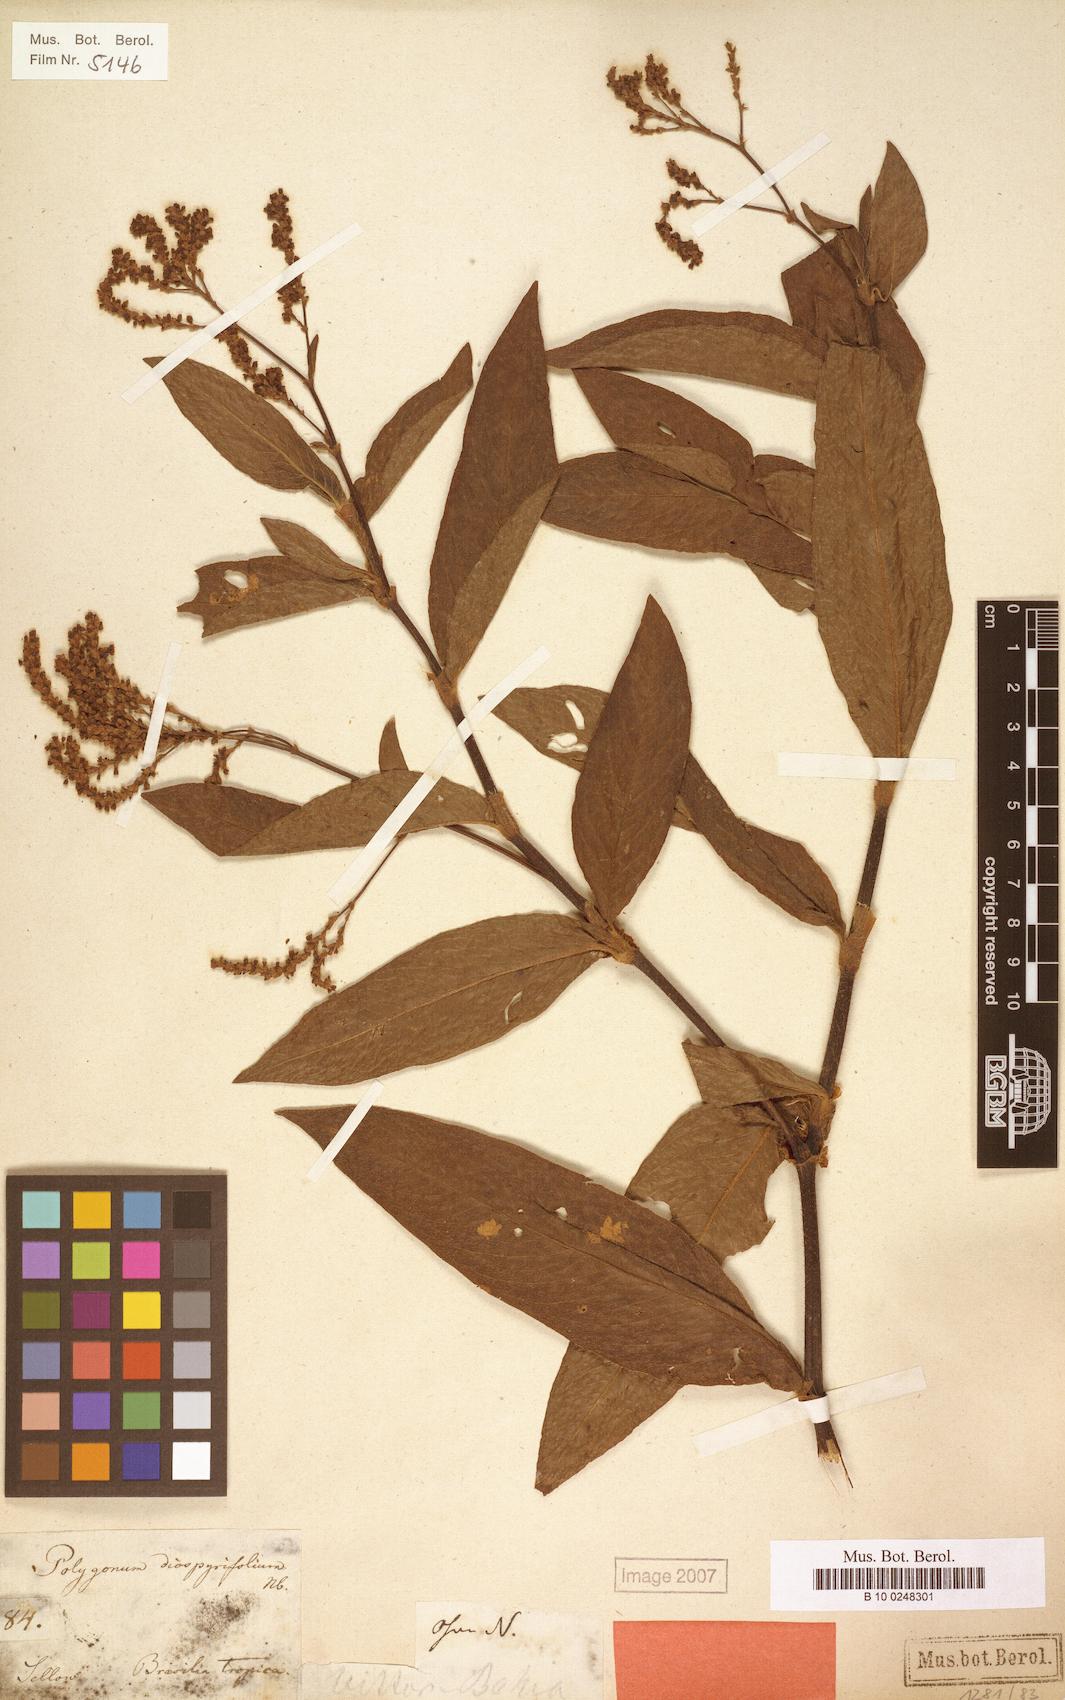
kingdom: Plantae
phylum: Tracheophyta
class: Magnoliopsida
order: Caryophyllales
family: Polygonaceae
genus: Persicaria
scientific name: Persicaria diospyrifolia
